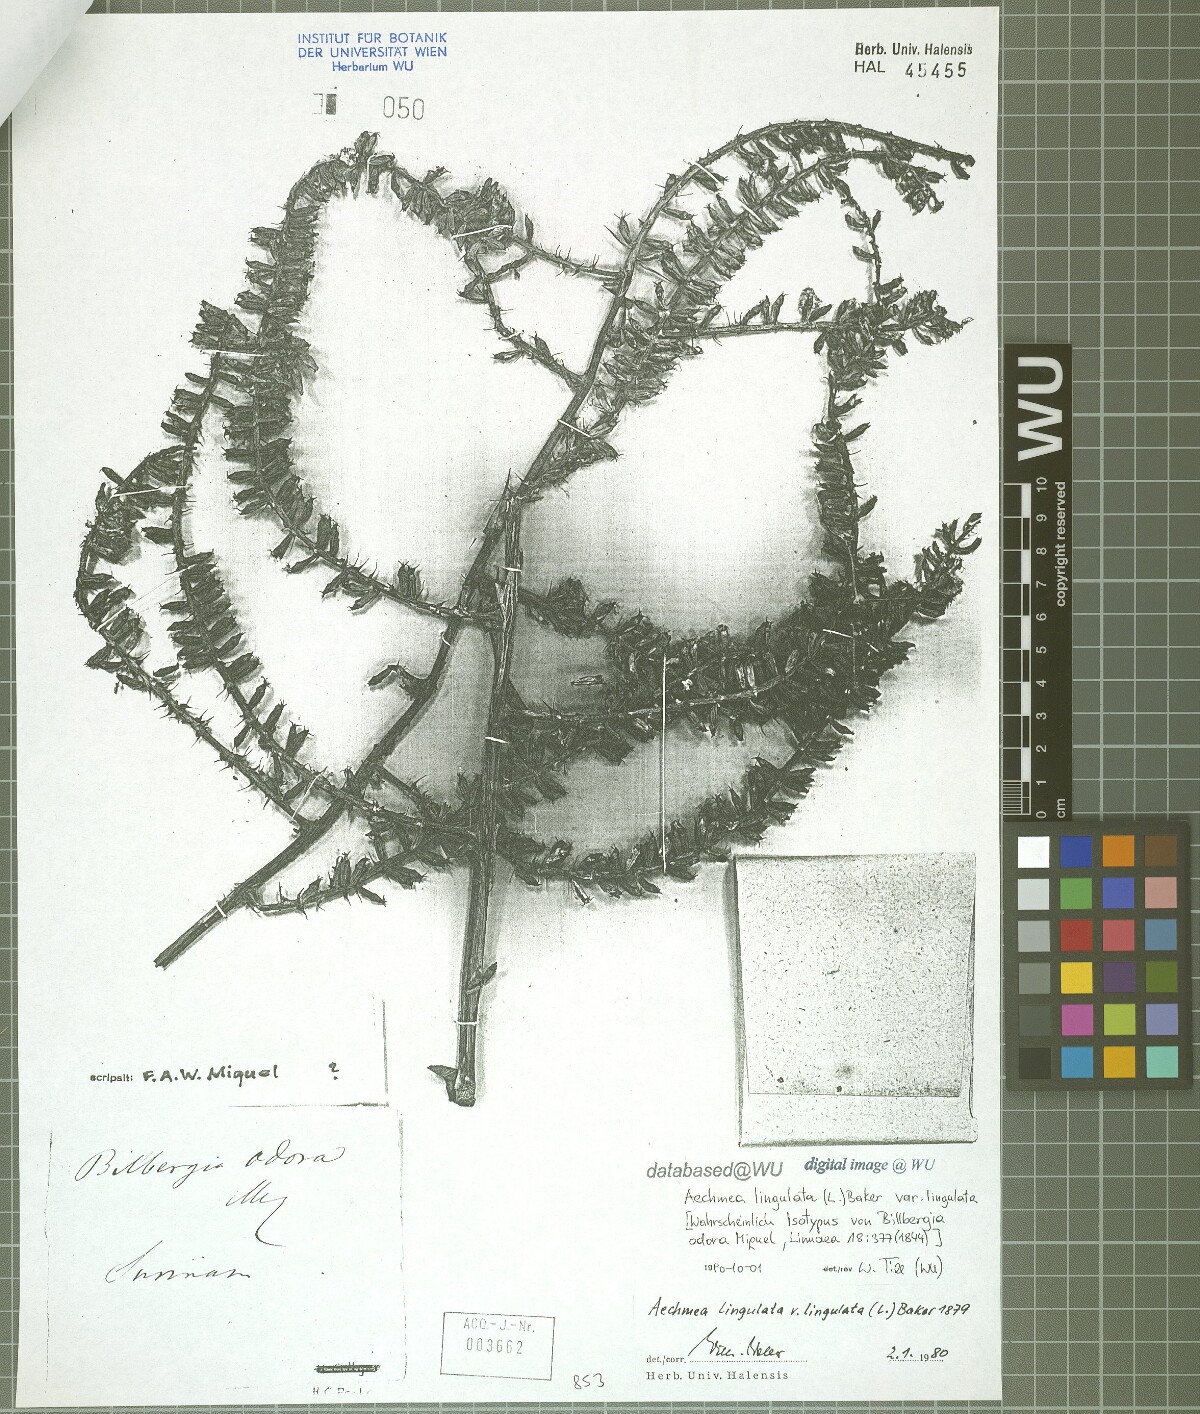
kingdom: Plantae
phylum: Tracheophyta
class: Liliopsida
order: Poales
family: Bromeliaceae
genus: Wittmackia
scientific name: Wittmackia lingulata
